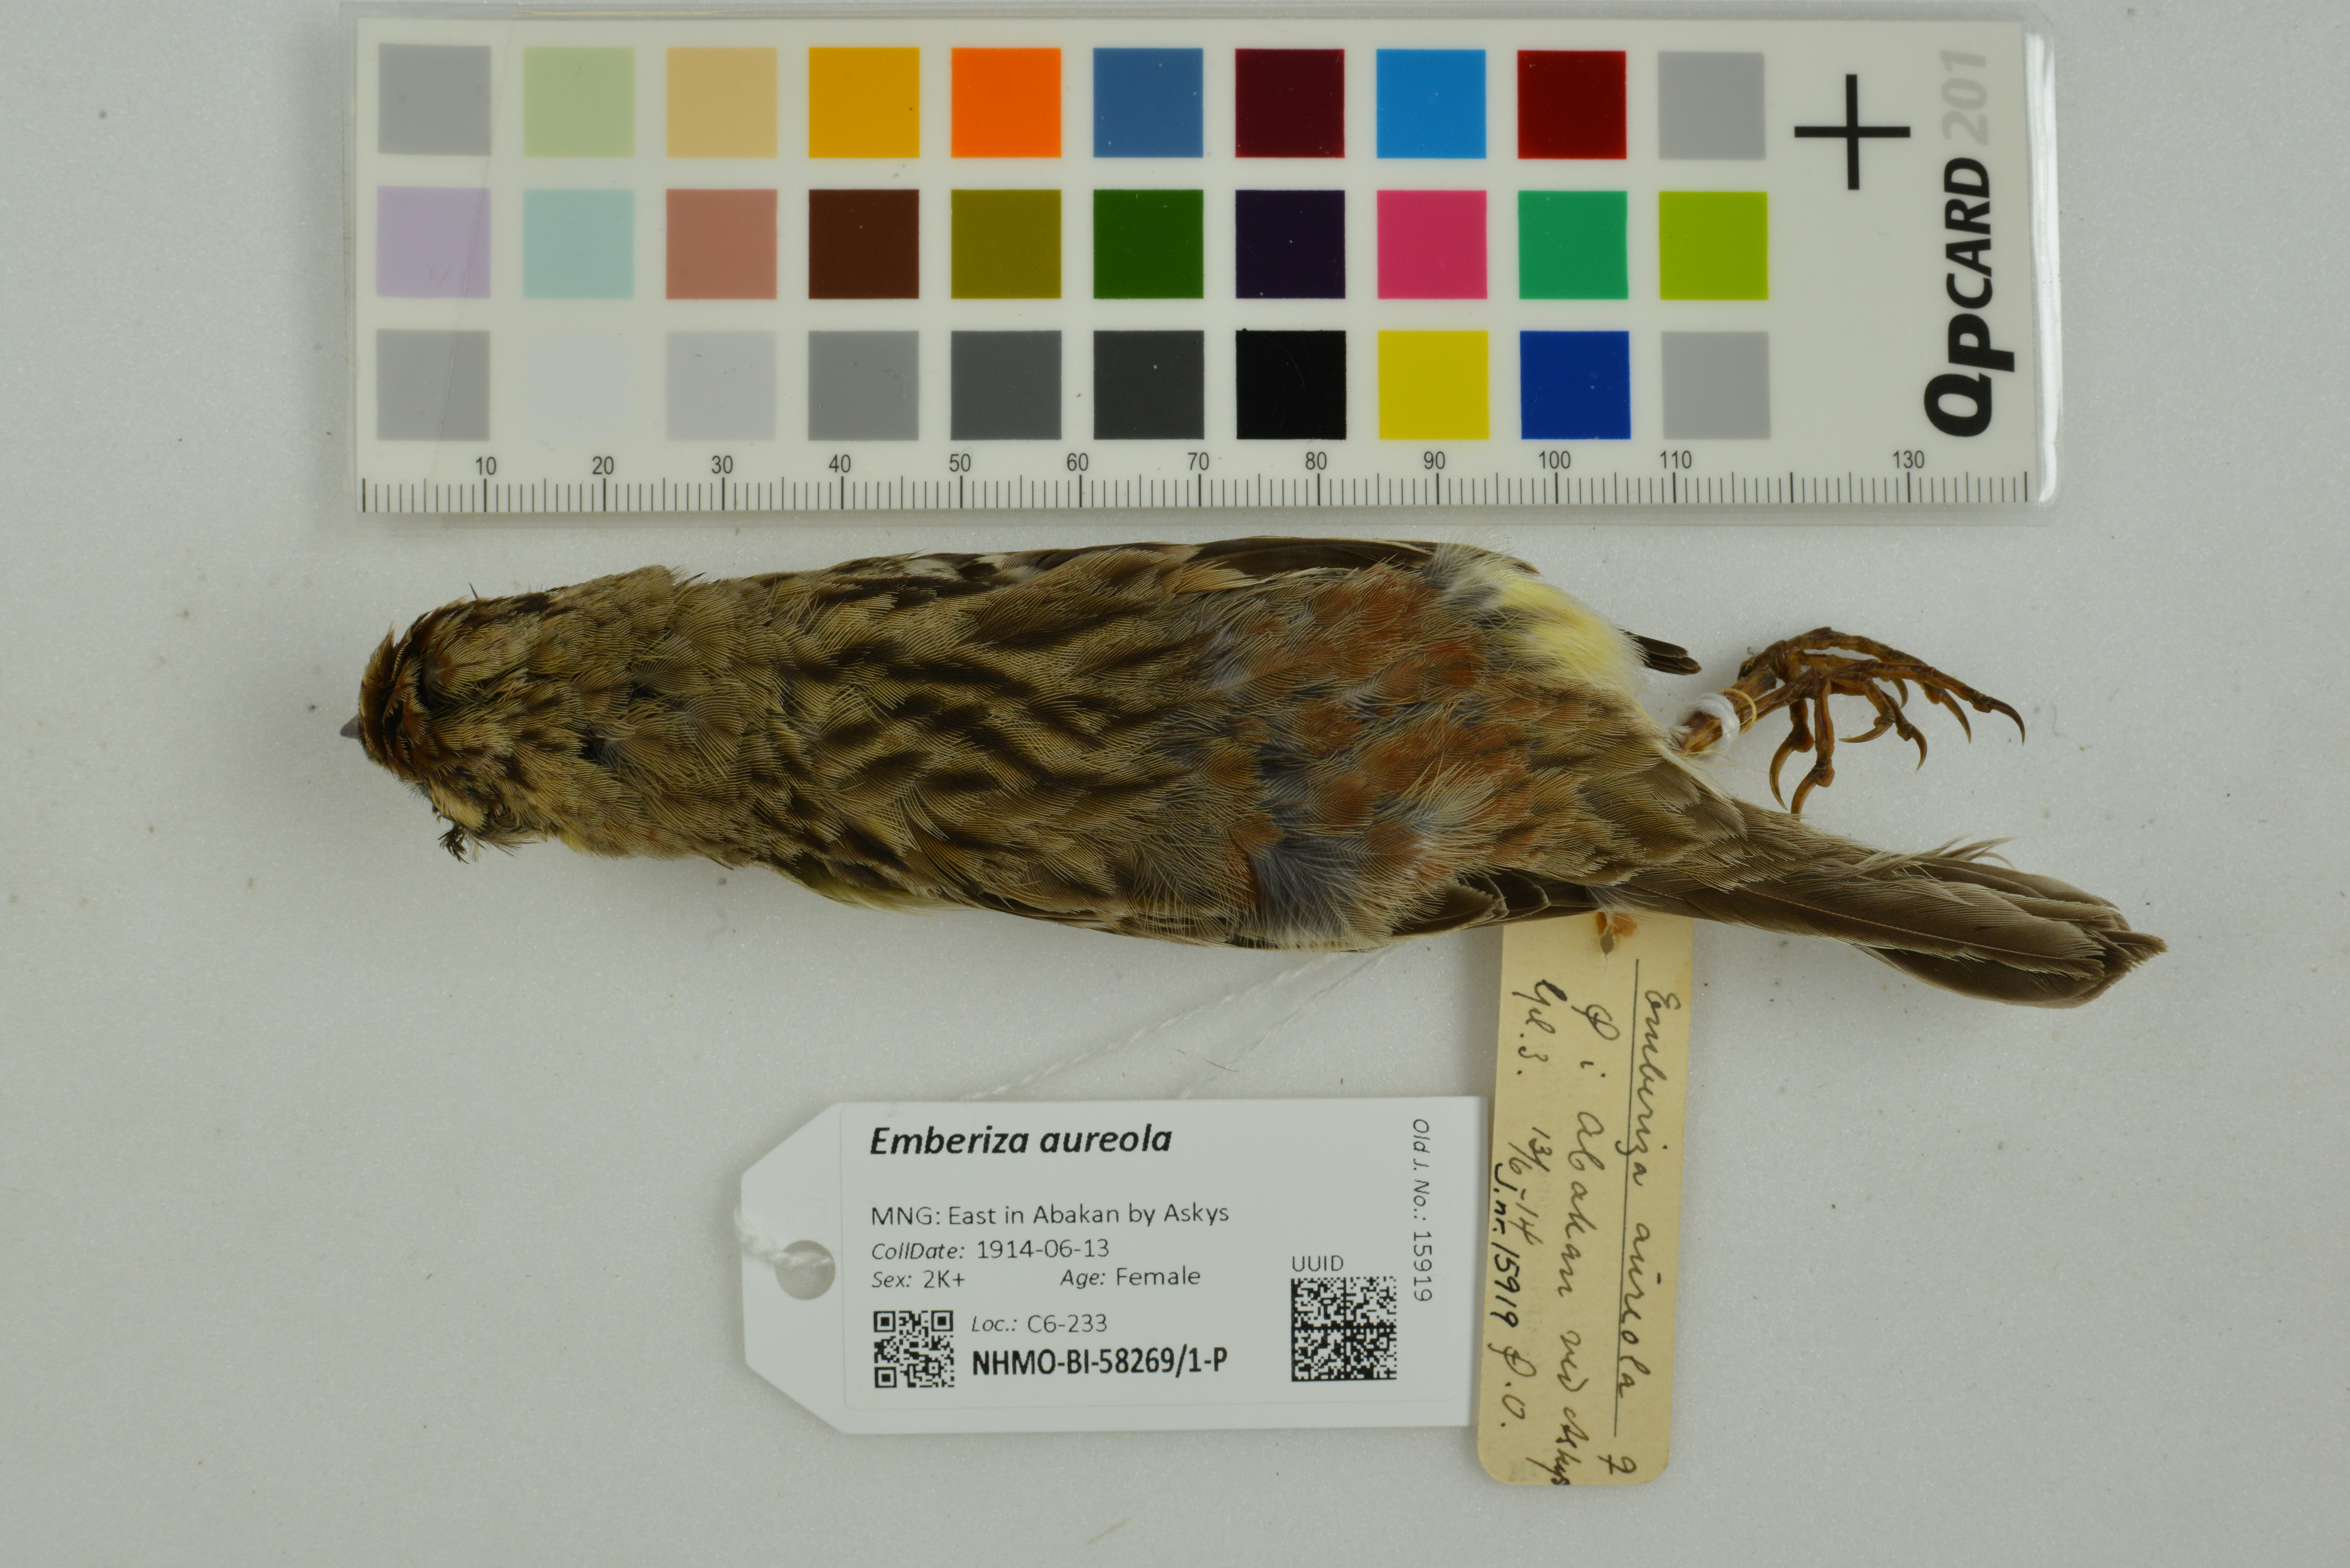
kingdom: Animalia
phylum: Chordata
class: Aves
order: Passeriformes
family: Emberizidae
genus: Emberiza
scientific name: Emberiza aureola
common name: Yellow-breasted bunting
